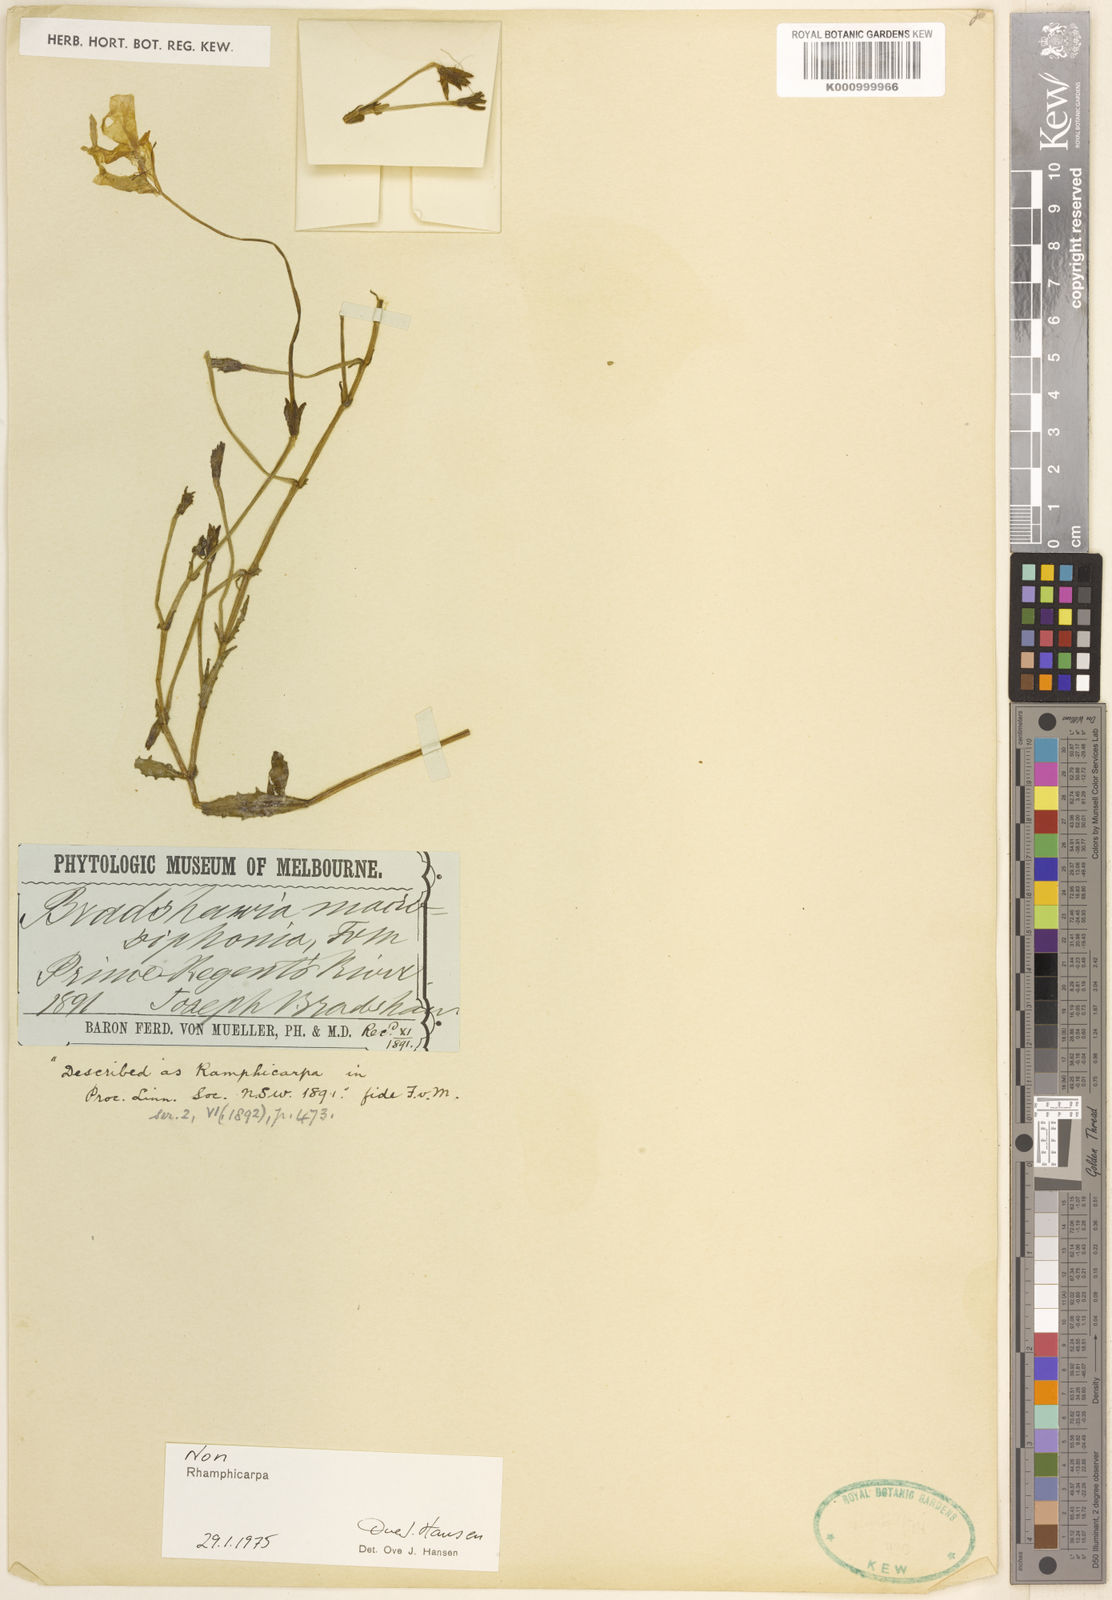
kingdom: Plantae
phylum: Tracheophyta
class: Magnoliopsida
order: Lamiales
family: Linderniaceae
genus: Vandellia
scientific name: Vandellia macrosiphonia
